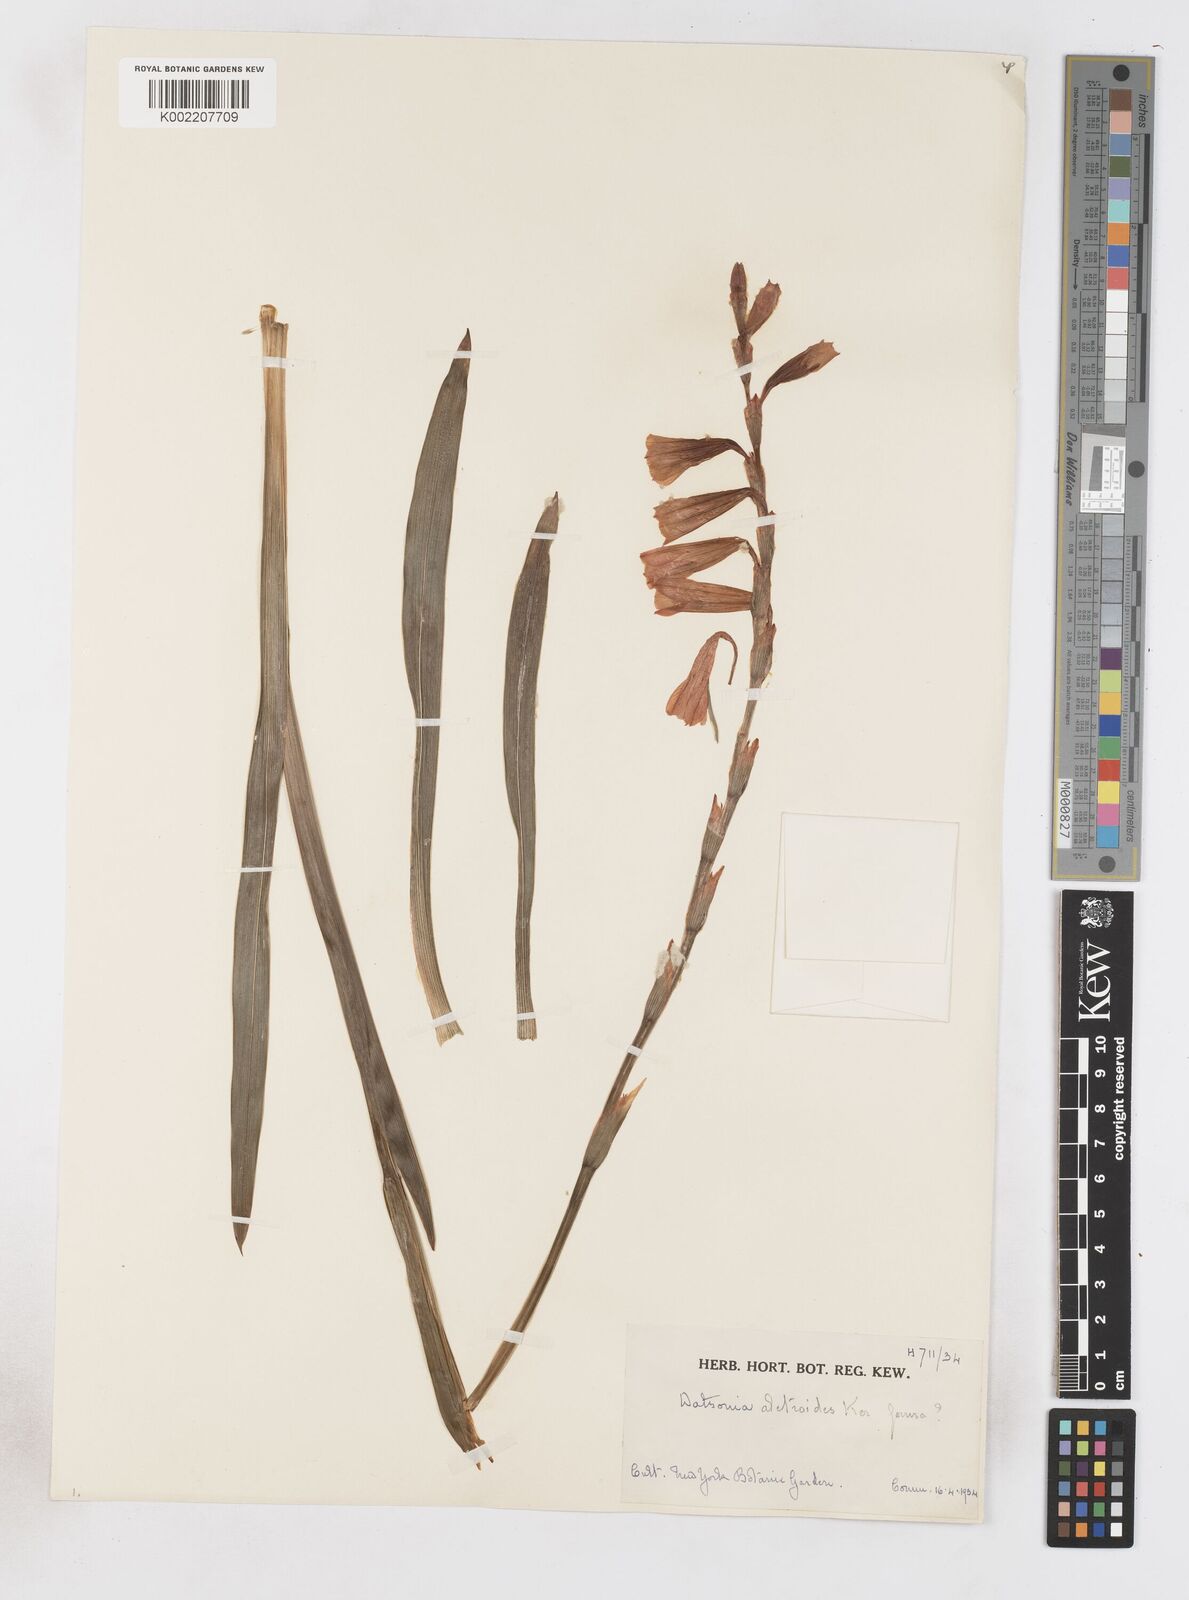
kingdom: Plantae
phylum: Tracheophyta
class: Liliopsida
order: Asparagales
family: Iridaceae
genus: Watsonia
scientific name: Watsonia aletroides
